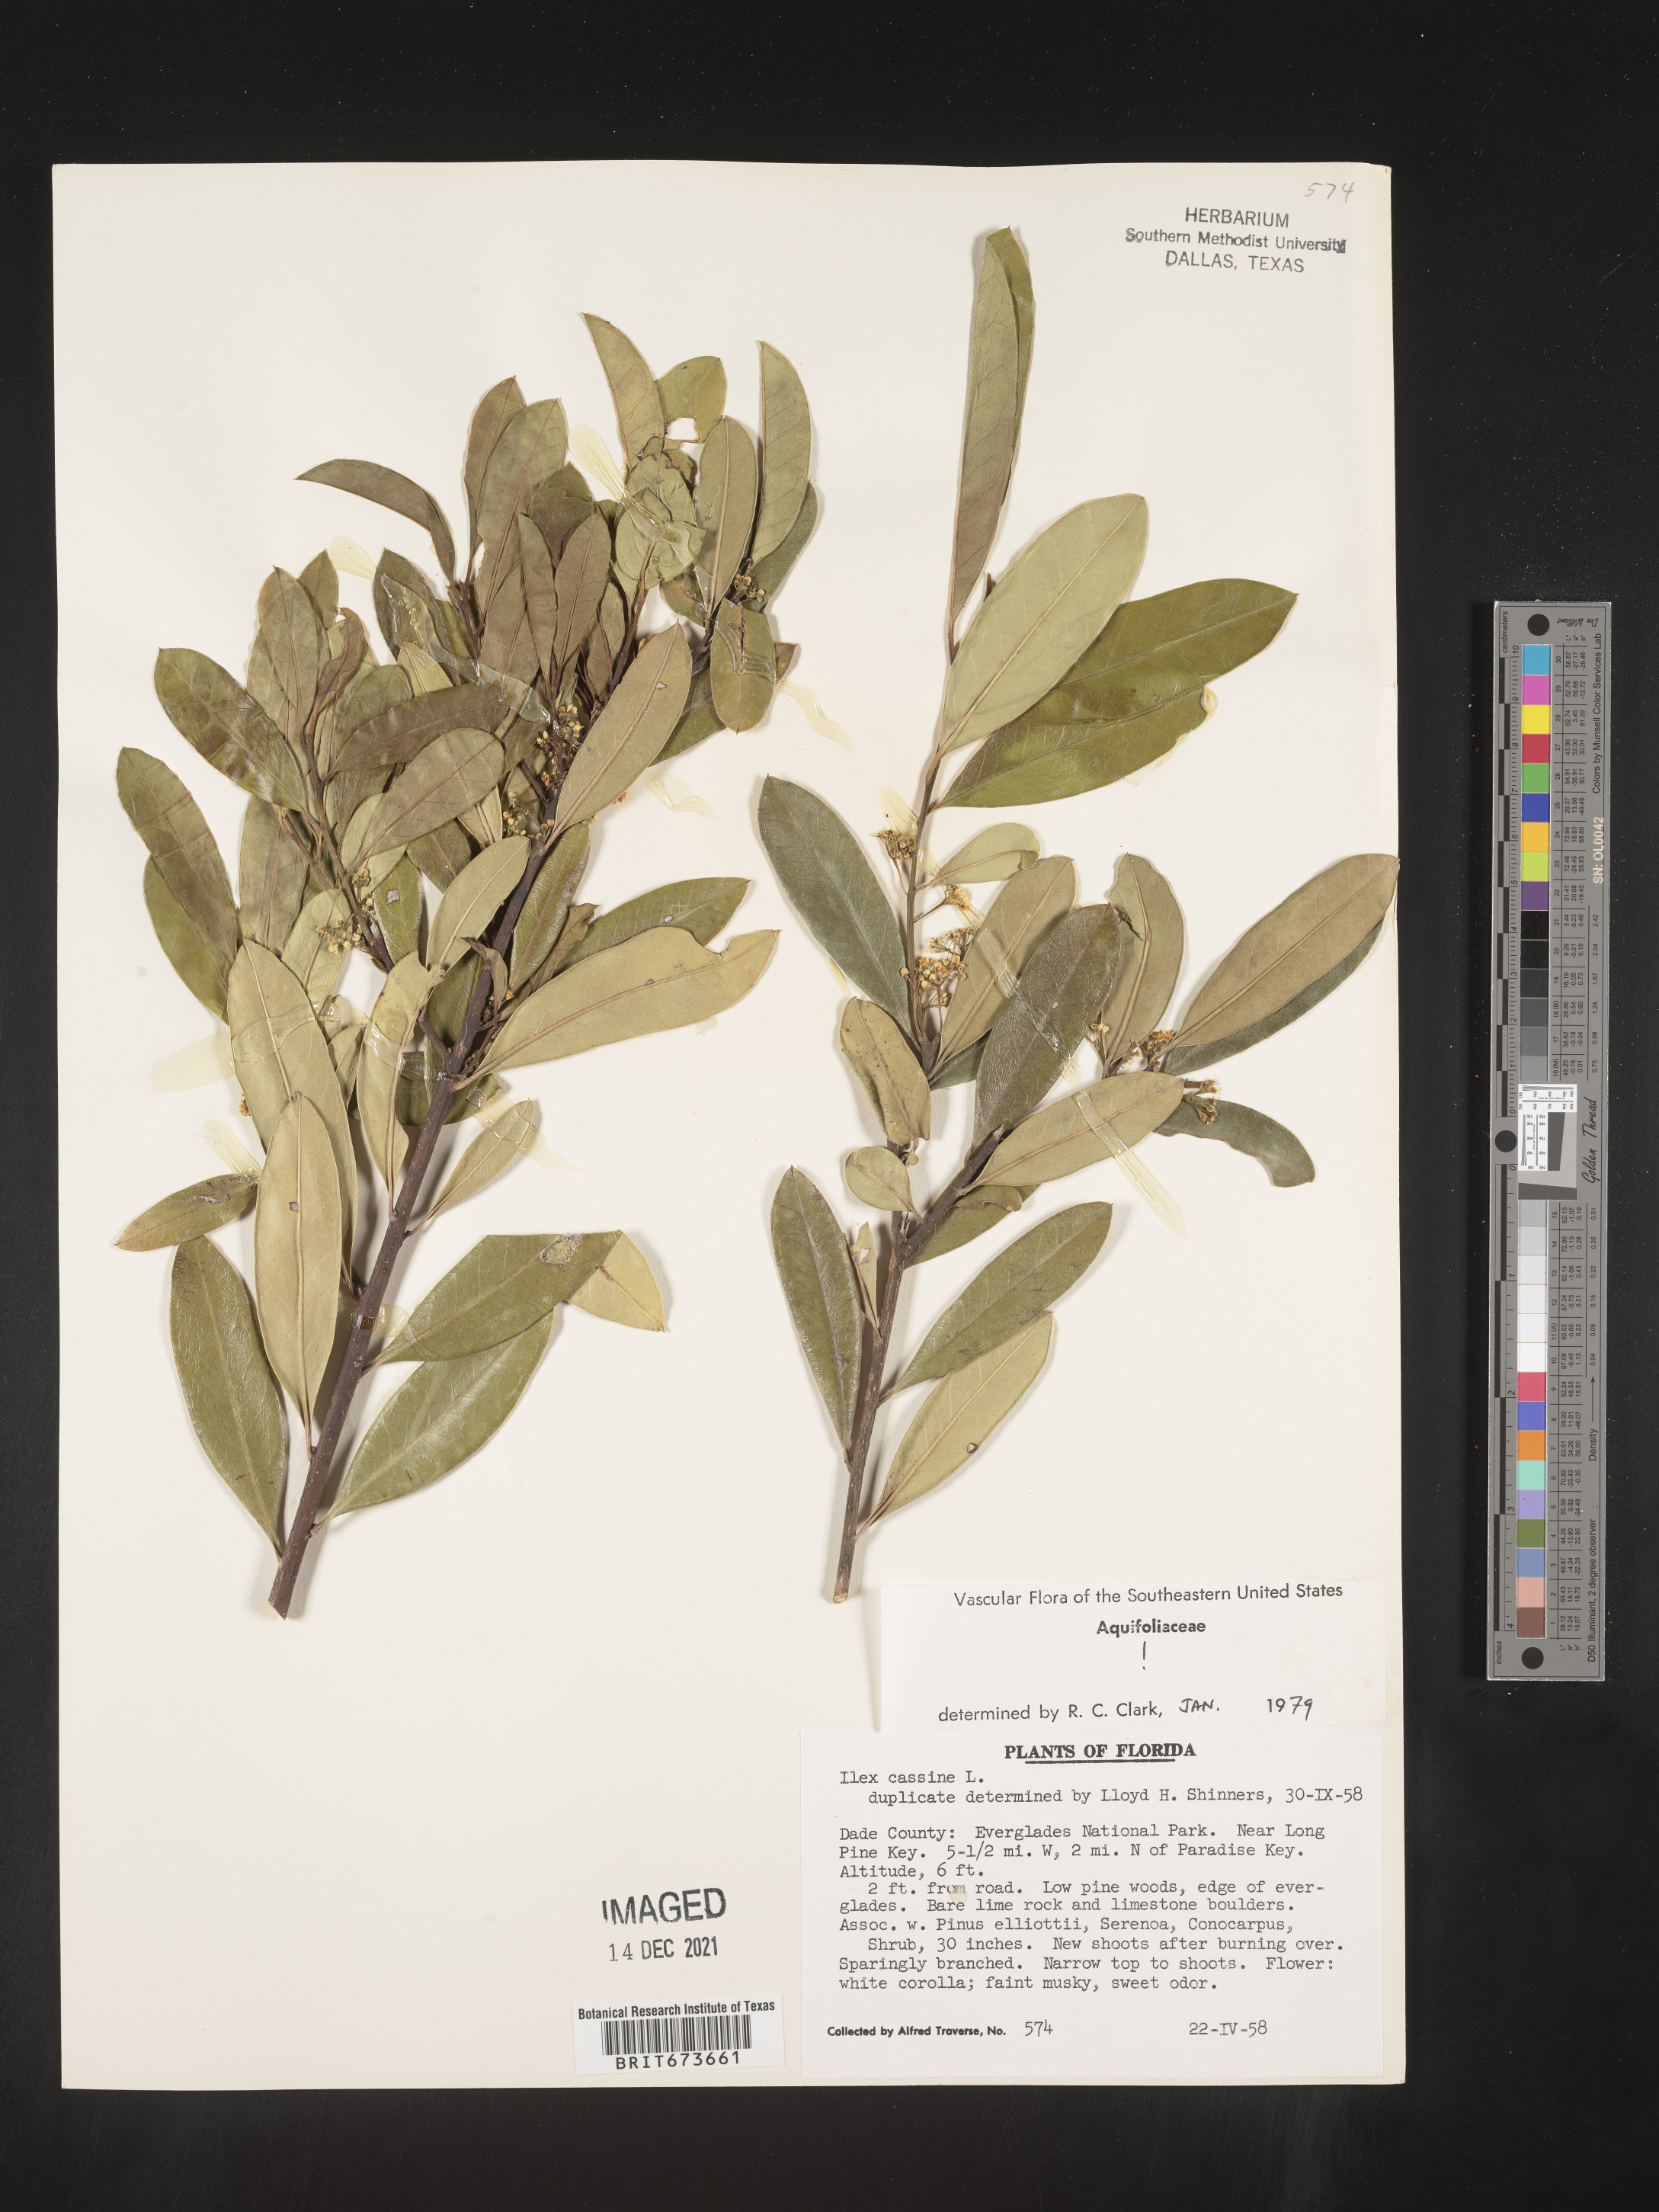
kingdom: Plantae
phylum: Tracheophyta
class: Magnoliopsida
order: Aquifoliales
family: Aquifoliaceae
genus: Ilex
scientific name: Ilex cassine
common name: Dahoon
